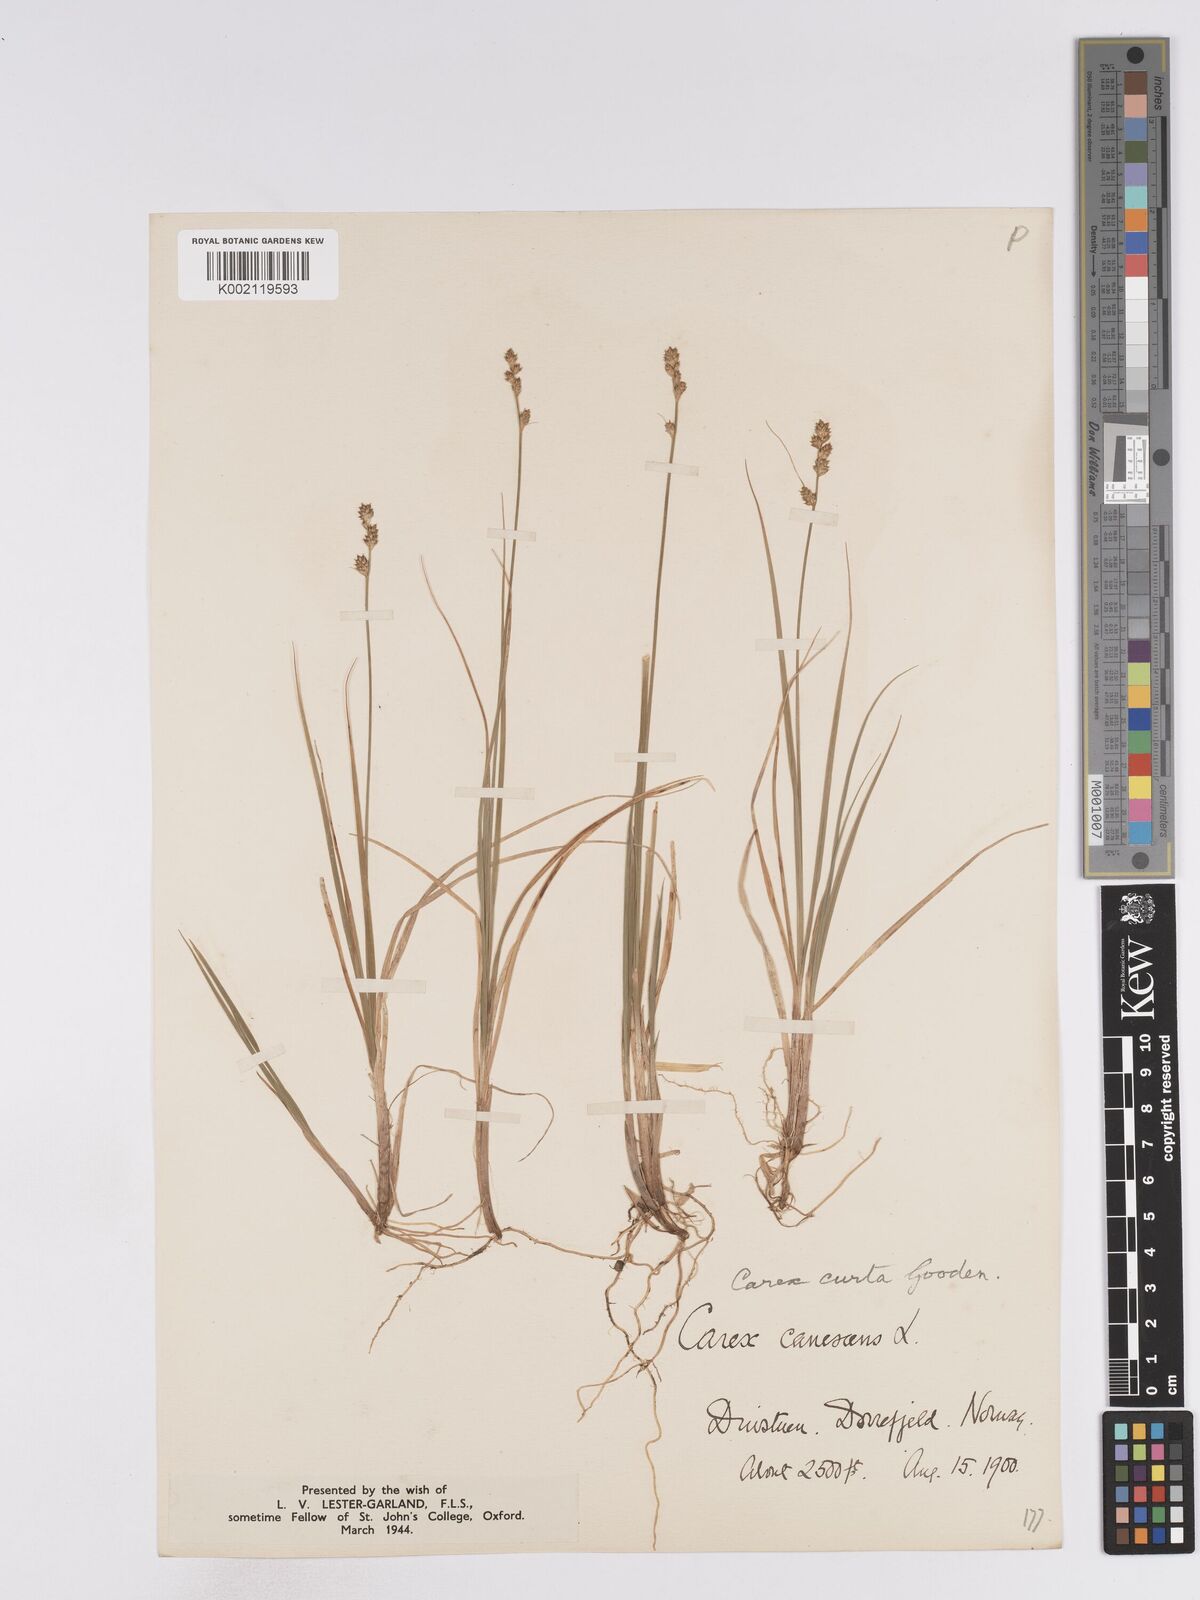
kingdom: Plantae
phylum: Tracheophyta
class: Liliopsida
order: Poales
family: Cyperaceae
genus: Carex
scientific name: Carex curta
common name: White sedge
